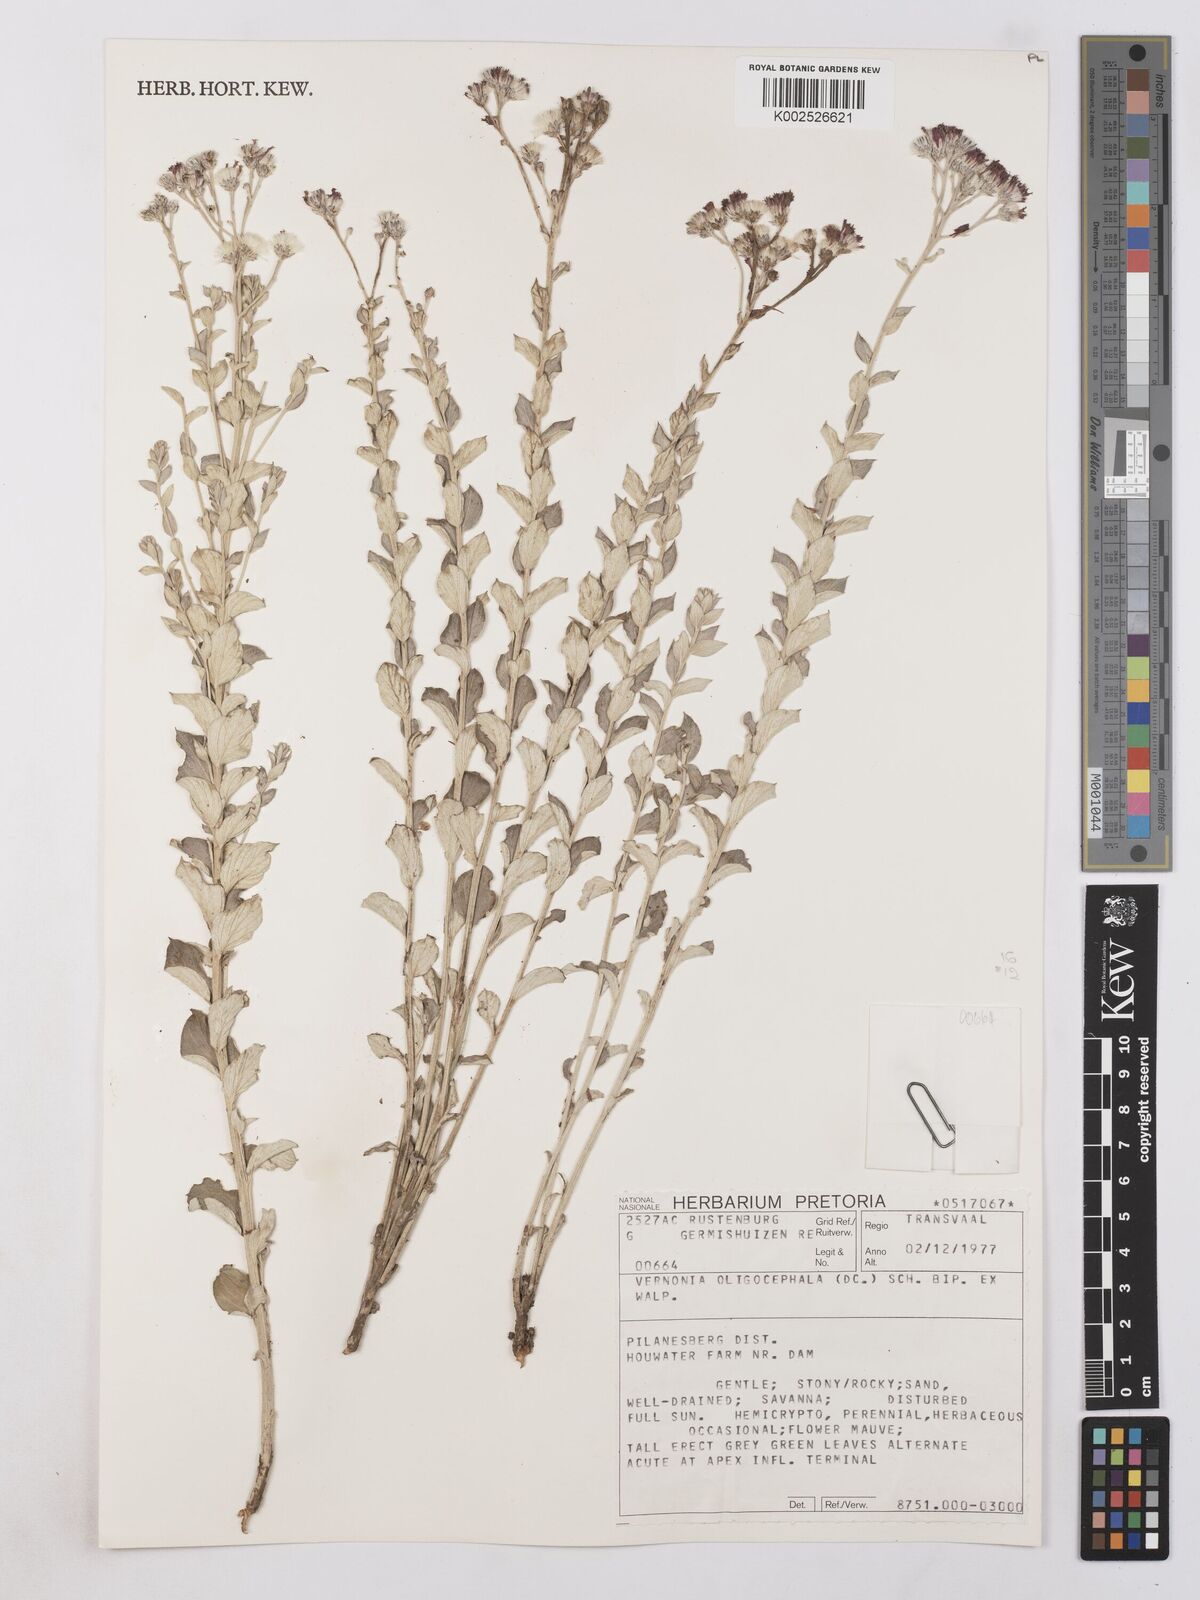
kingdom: Plantae
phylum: Tracheophyta
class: Magnoliopsida
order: Asterales
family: Asteraceae
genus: Hilliardiella
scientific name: Hilliardiella oligocephala
